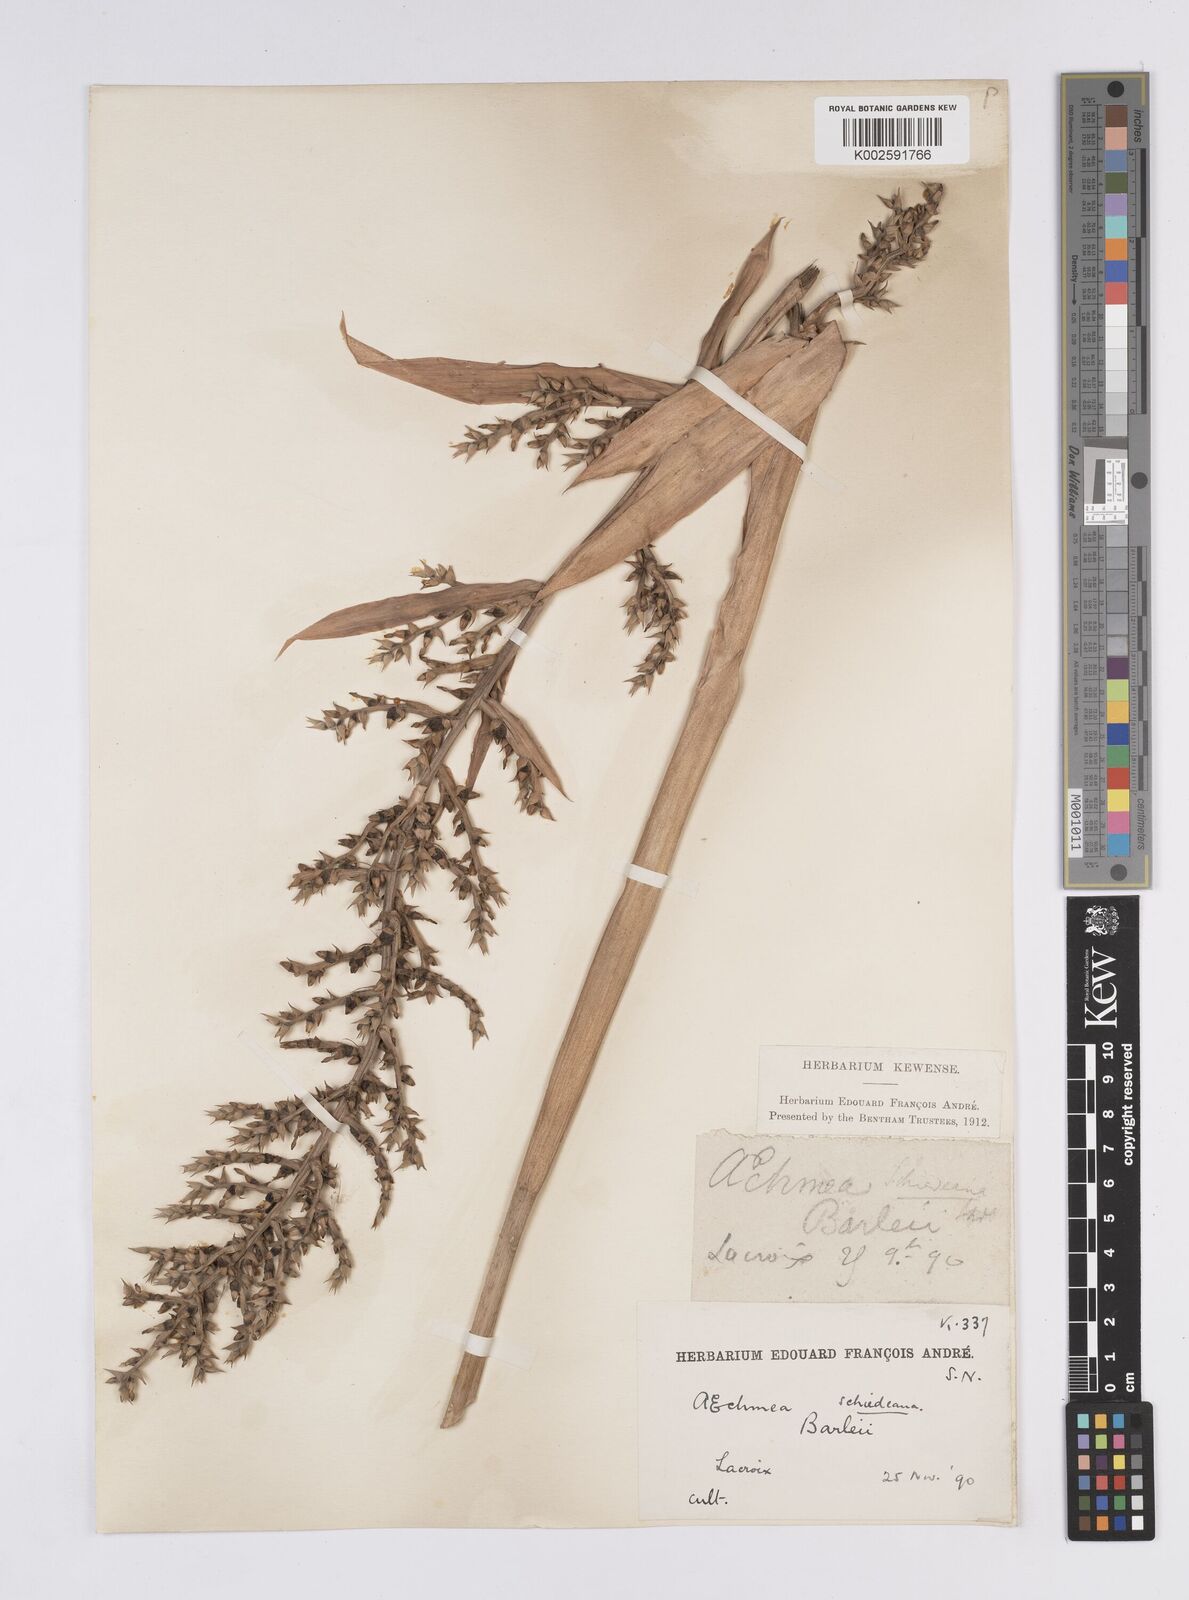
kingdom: Plantae
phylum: Tracheophyta
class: Liliopsida
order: Poales
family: Bromeliaceae
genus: Aechmea
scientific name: Aechmea bracteata
